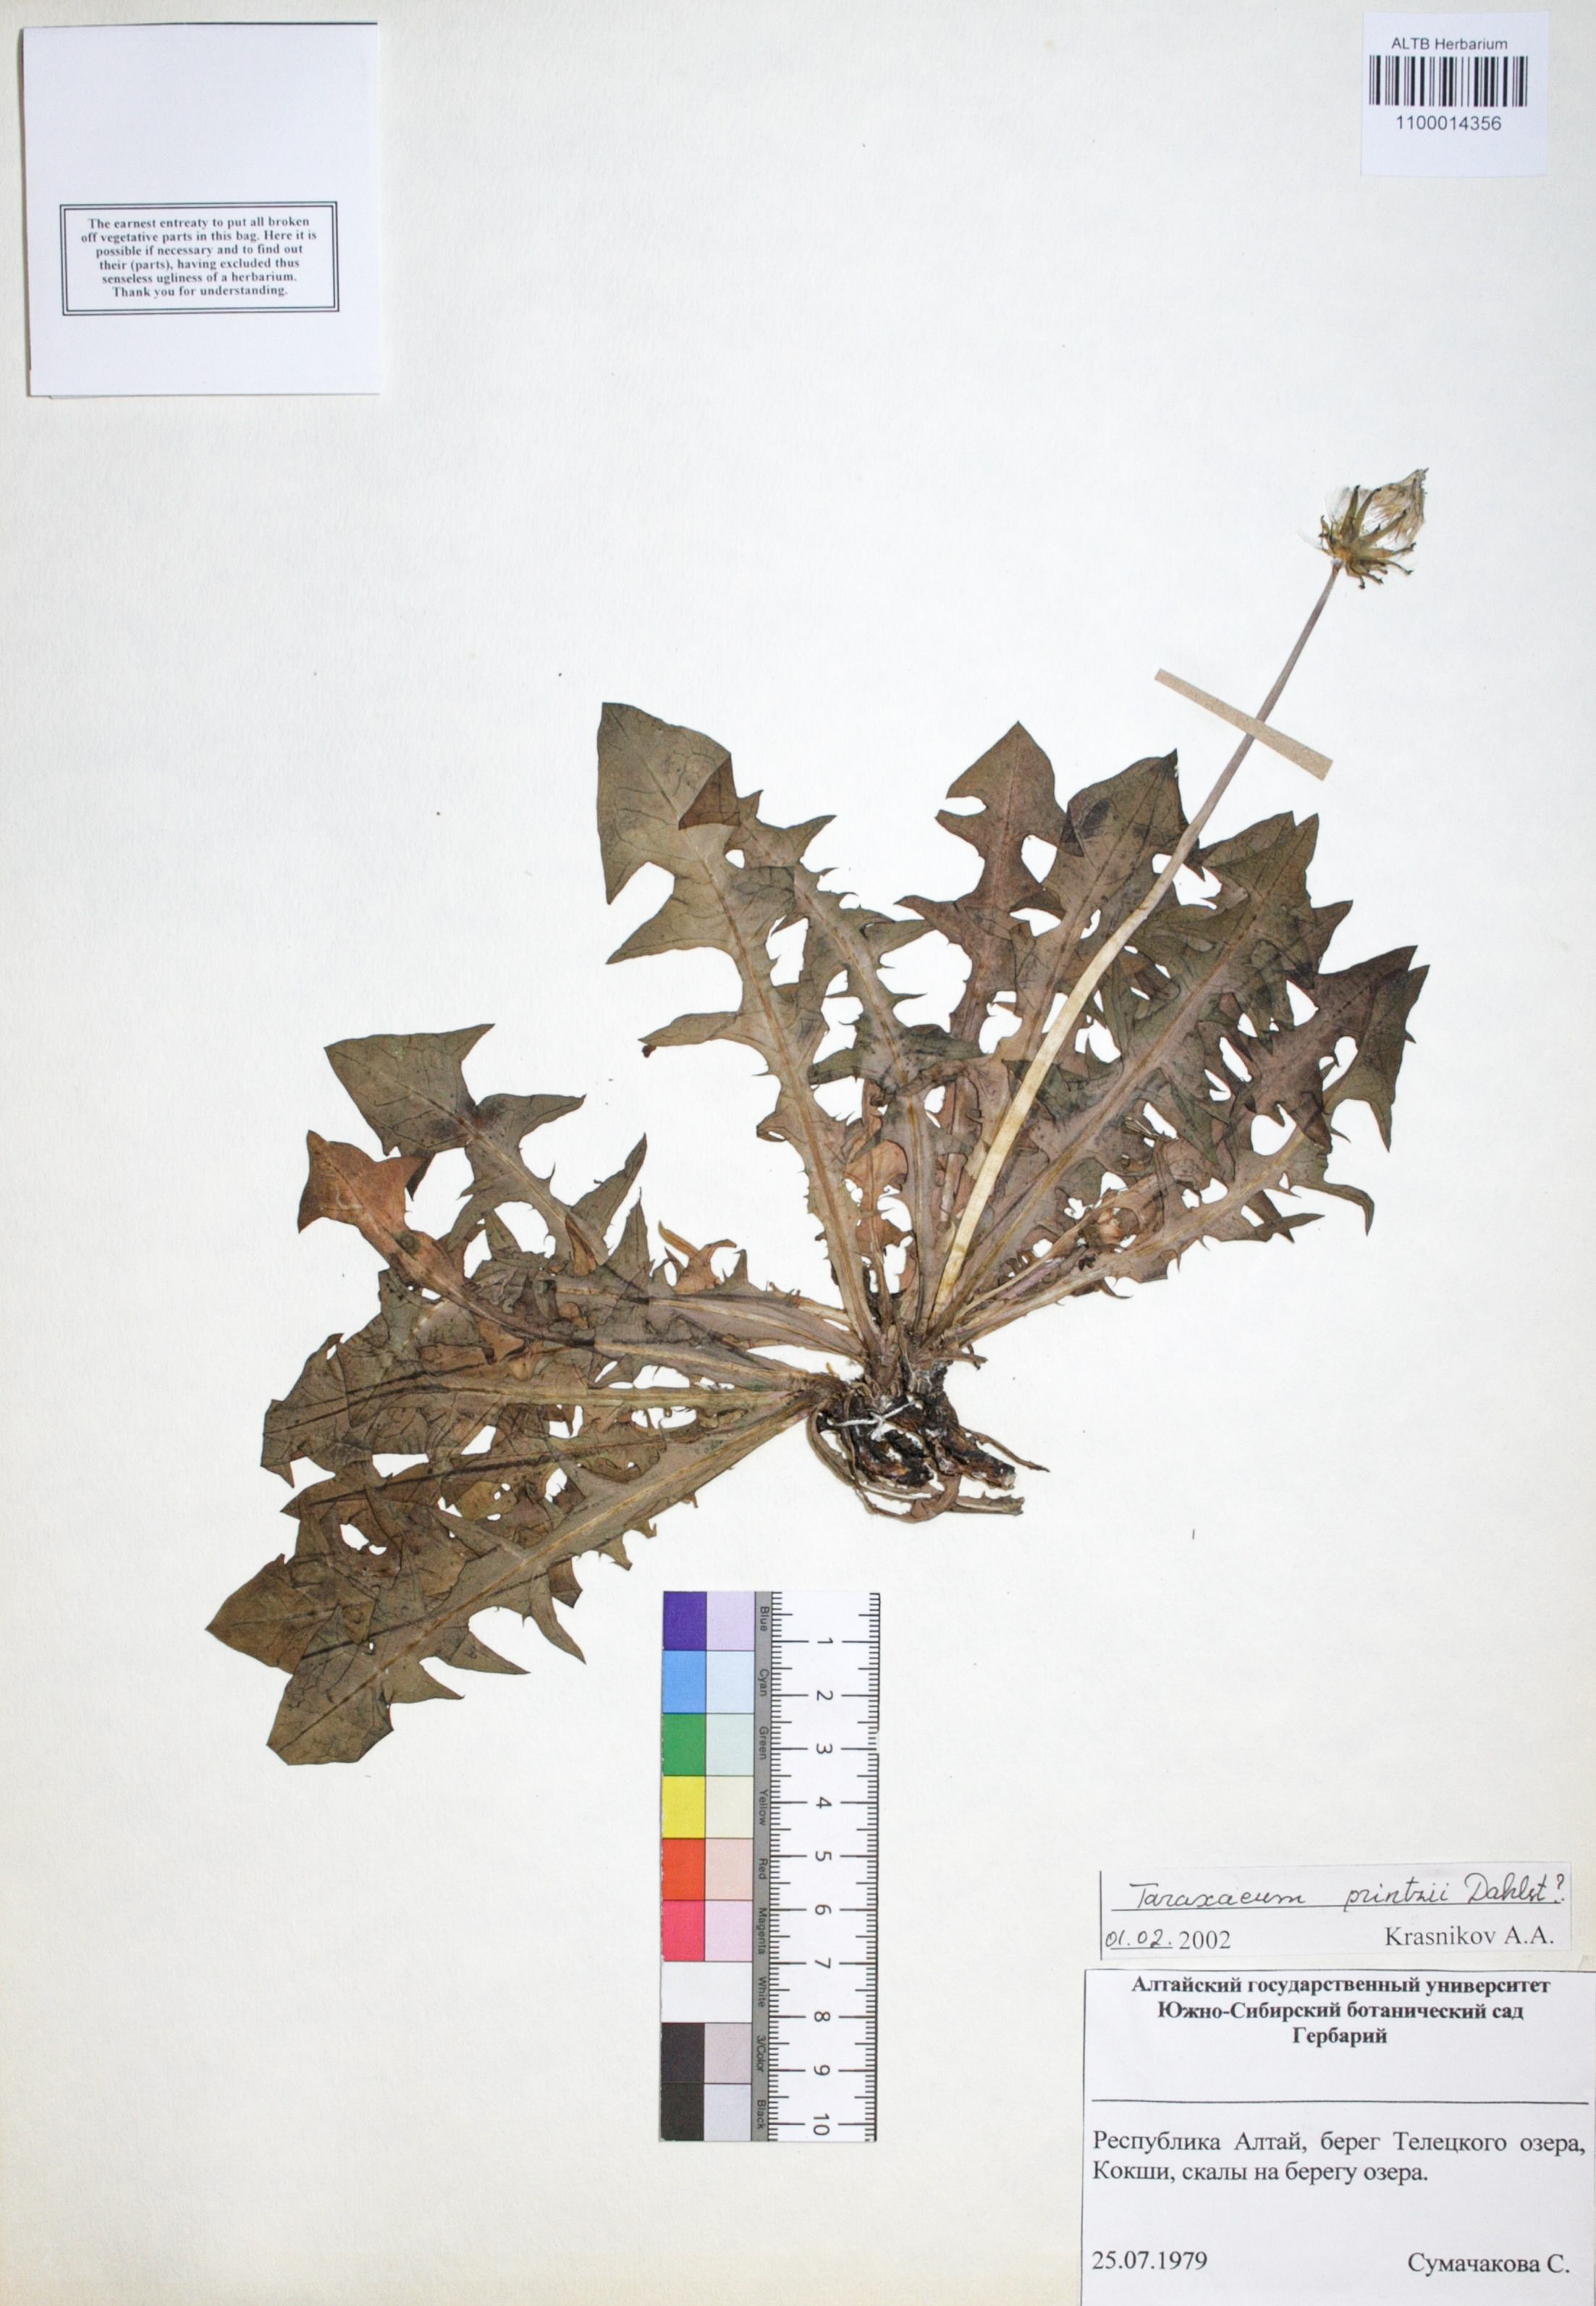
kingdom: Plantae
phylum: Tracheophyta
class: Magnoliopsida
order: Asterales
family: Asteraceae
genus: Taraxacum
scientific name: Taraxacum longicorne
